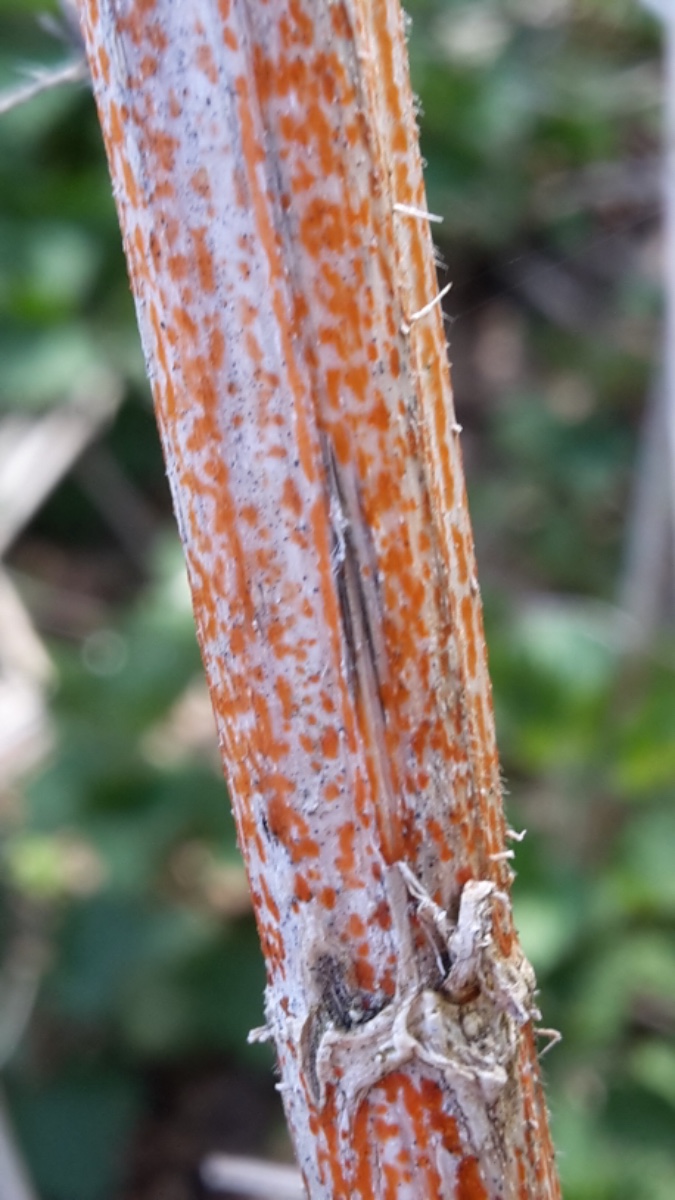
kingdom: Fungi
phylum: Ascomycota
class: Leotiomycetes
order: Helotiales
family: Calloriaceae
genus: Calloria
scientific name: Calloria urticae
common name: nælde-orangeskive
